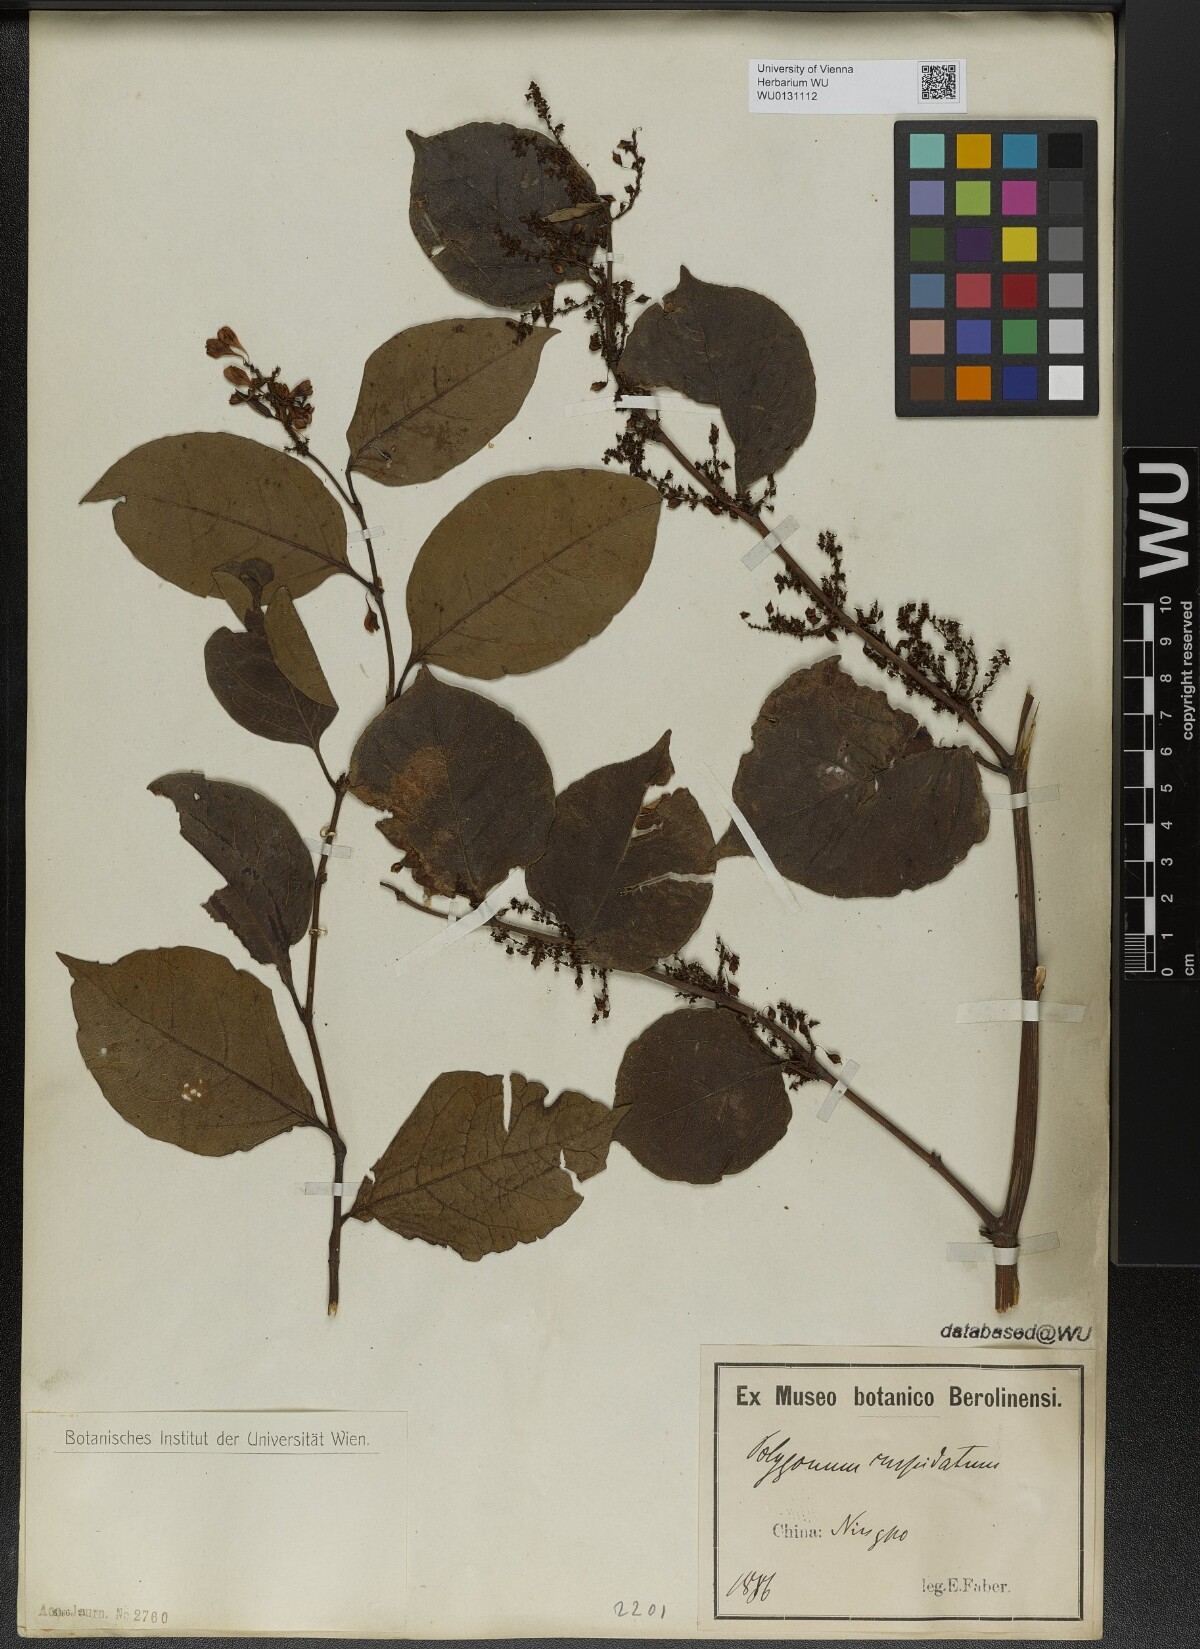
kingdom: Plantae
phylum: Tracheophyta
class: Magnoliopsida
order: Caryophyllales
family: Polygonaceae
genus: Reynoutria
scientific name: Reynoutria japonica
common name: Japanese knotweed
